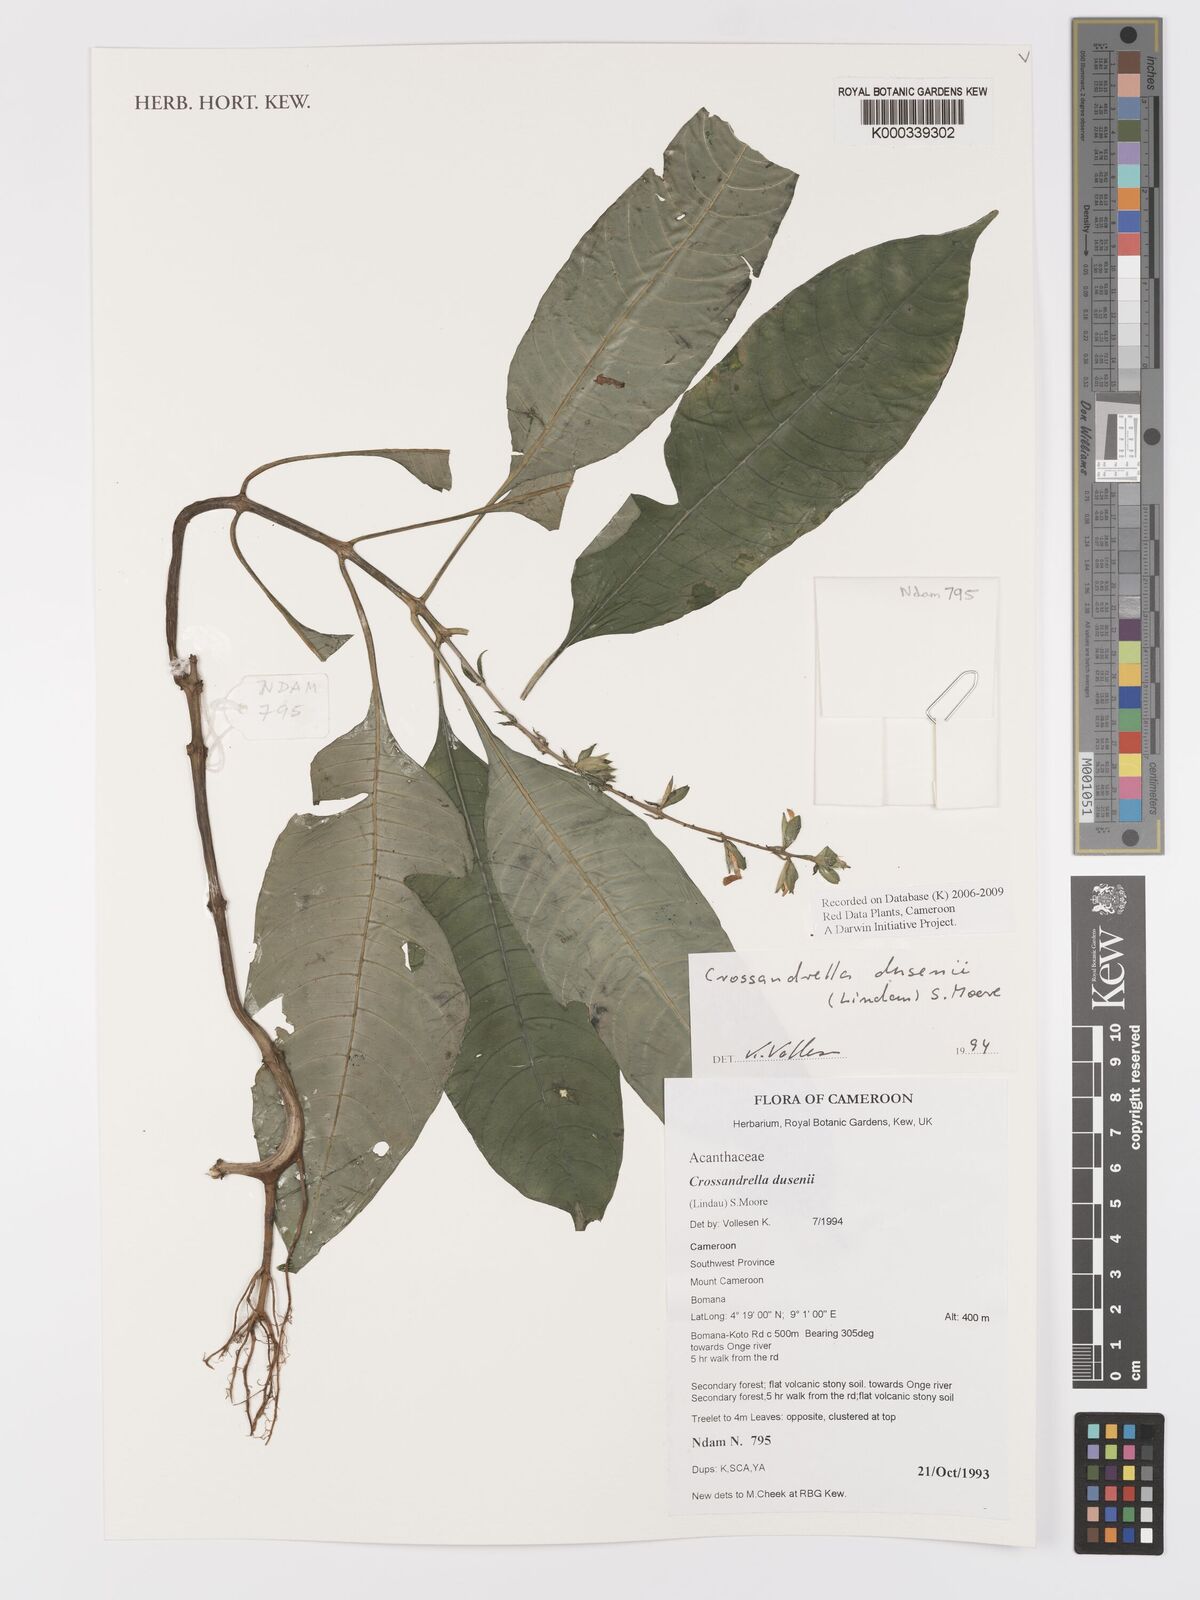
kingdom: Plantae
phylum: Tracheophyta
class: Magnoliopsida
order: Lamiales
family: Acanthaceae
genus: Crossandrella
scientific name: Crossandrella dusenii
